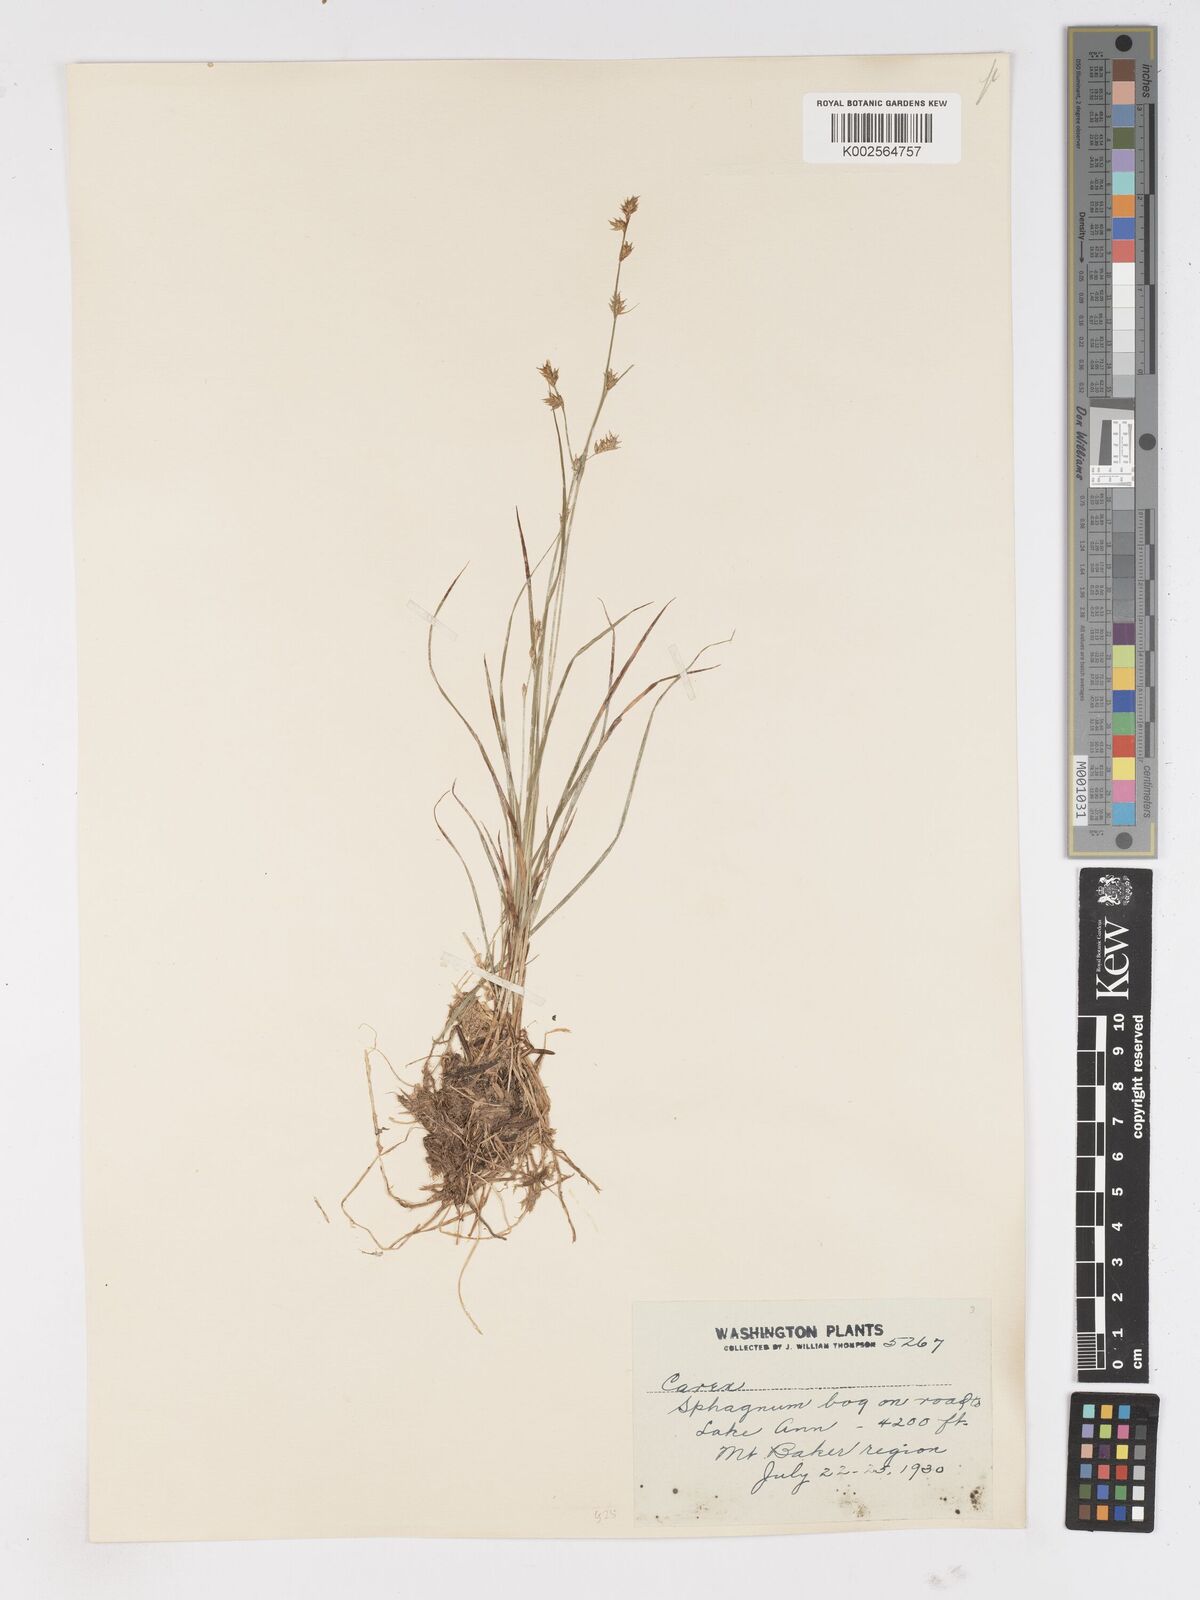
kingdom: Plantae
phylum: Tracheophyta
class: Liliopsida
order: Poales
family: Cyperaceae
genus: Carex
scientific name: Carex
